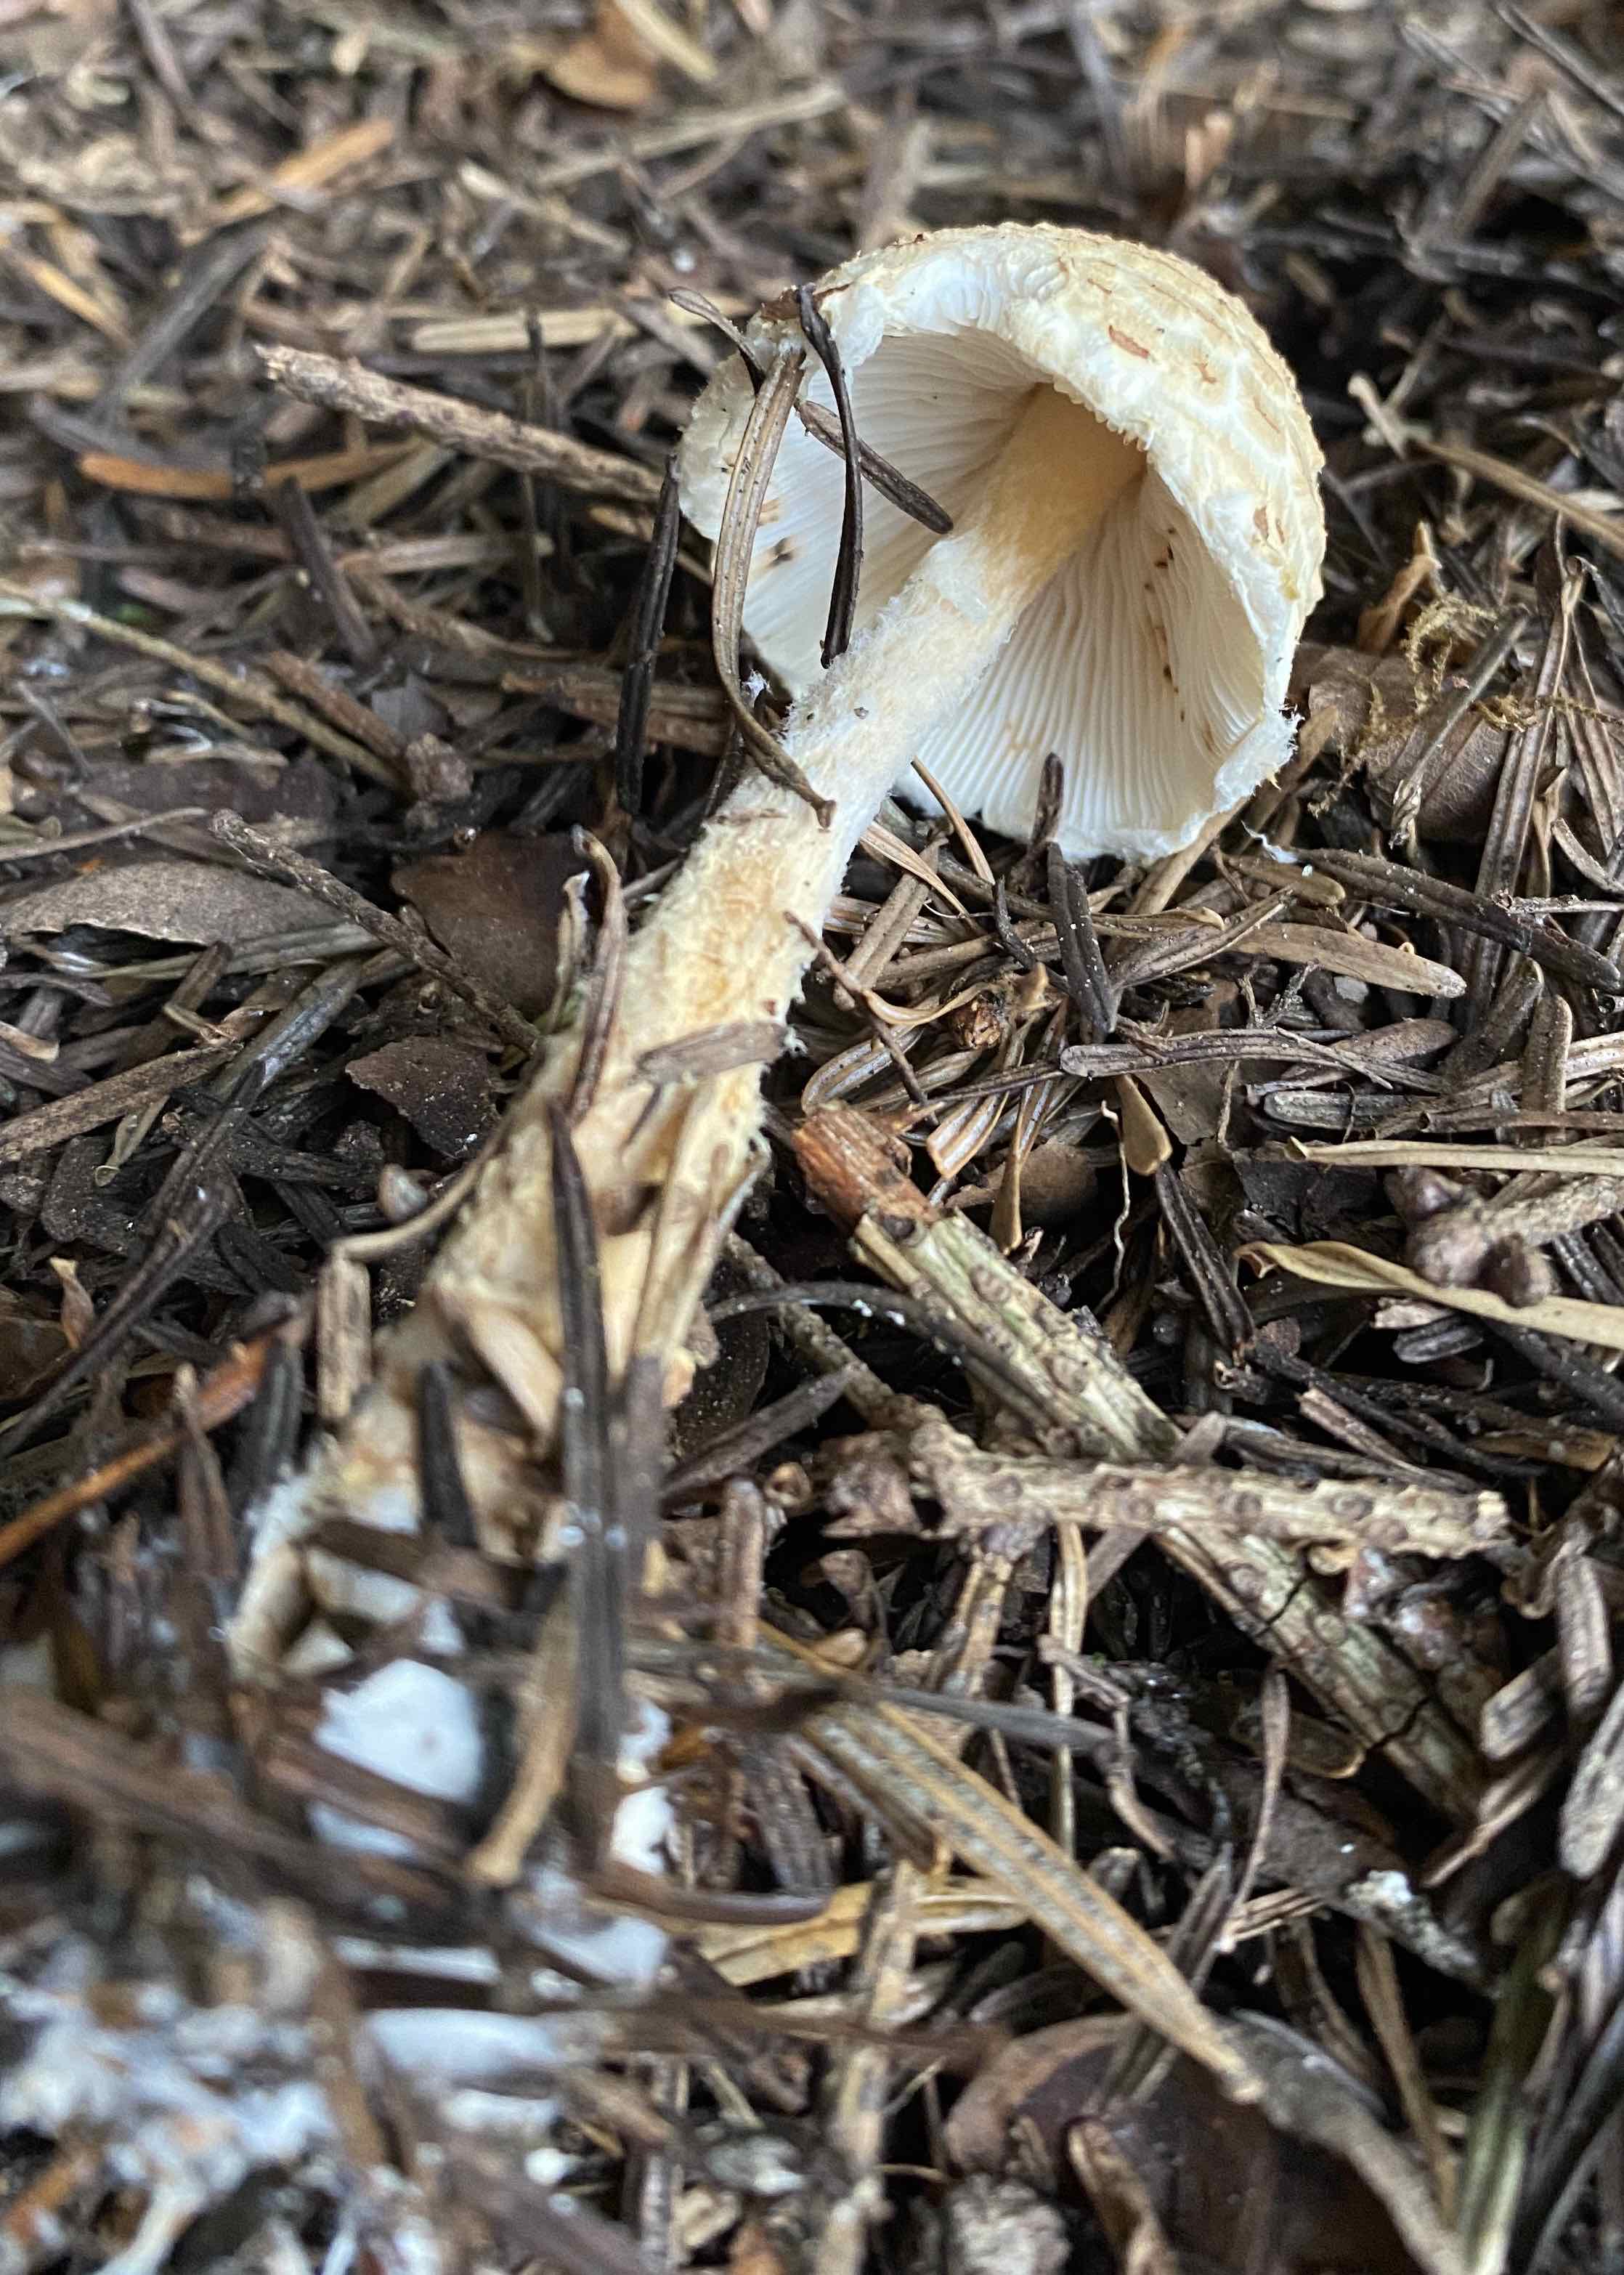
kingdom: Fungi
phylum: Basidiomycota
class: Agaricomycetes
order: Agaricales
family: Agaricaceae
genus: Lepiota
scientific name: Lepiota magnispora
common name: gulfnugget parasolhat
